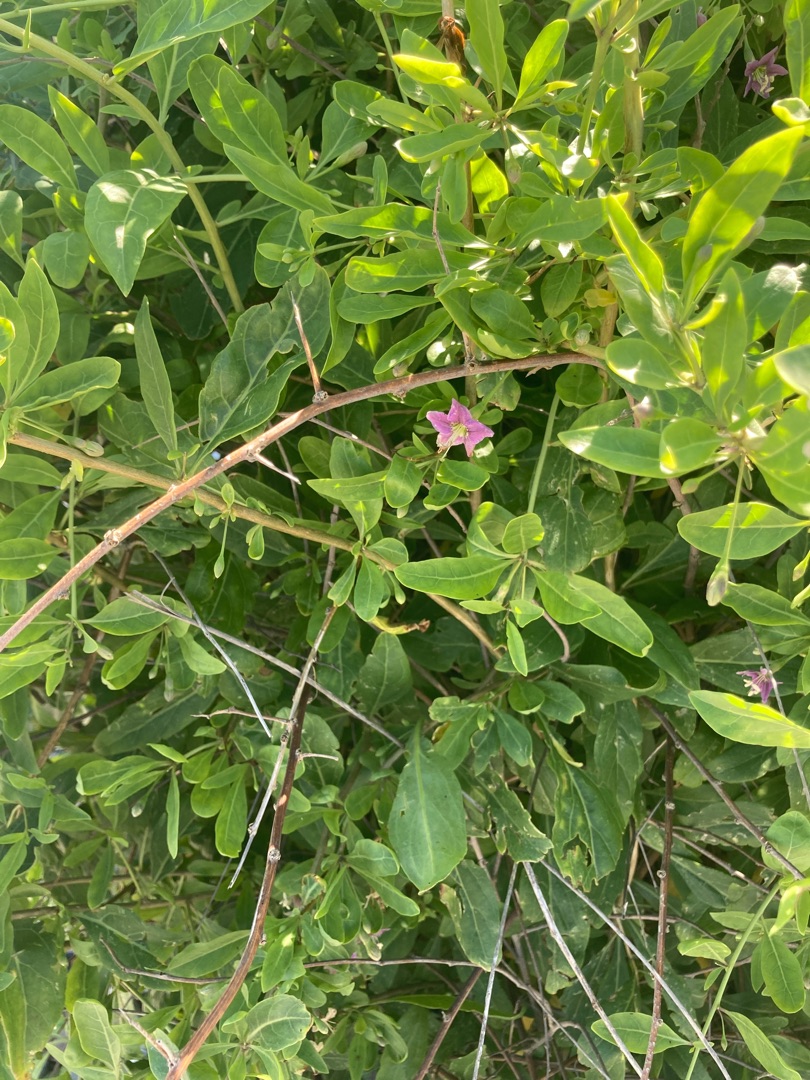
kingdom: Plantae
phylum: Tracheophyta
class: Magnoliopsida
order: Solanales
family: Solanaceae
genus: Lycium
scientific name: Lycium barbarum
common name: Bukketorn
